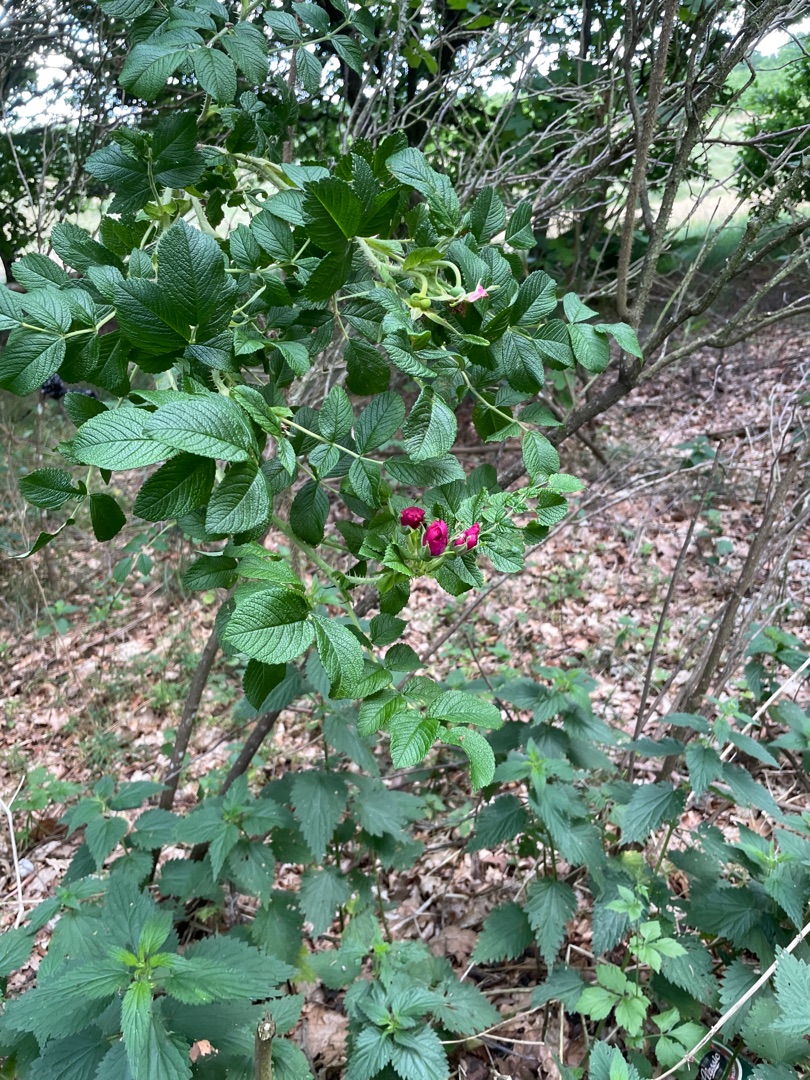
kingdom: Plantae
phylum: Tracheophyta
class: Magnoliopsida
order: Rosales
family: Rosaceae
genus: Rosa
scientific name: Rosa rugosa
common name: Rynket rose
